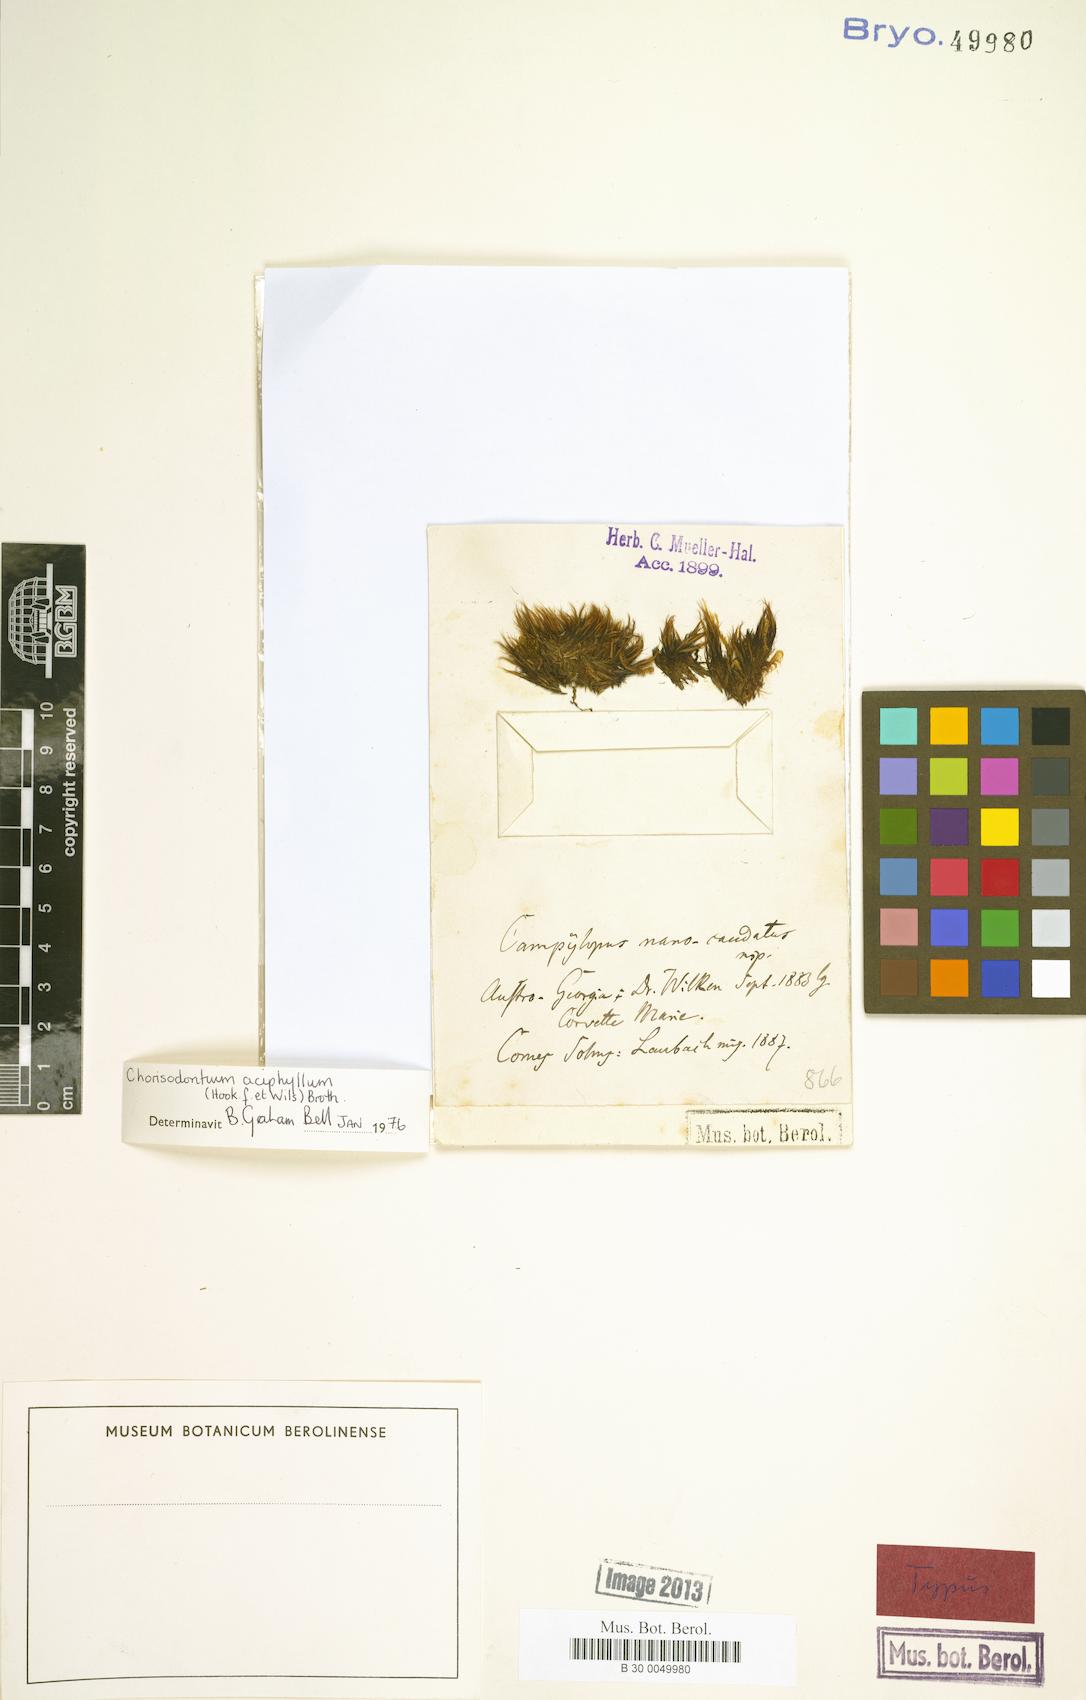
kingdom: Plantae
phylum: Bryophyta
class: Bryopsida
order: Dicranales
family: Dicranaceae
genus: Chorisodontium
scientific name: Chorisodontium aciphyllum
